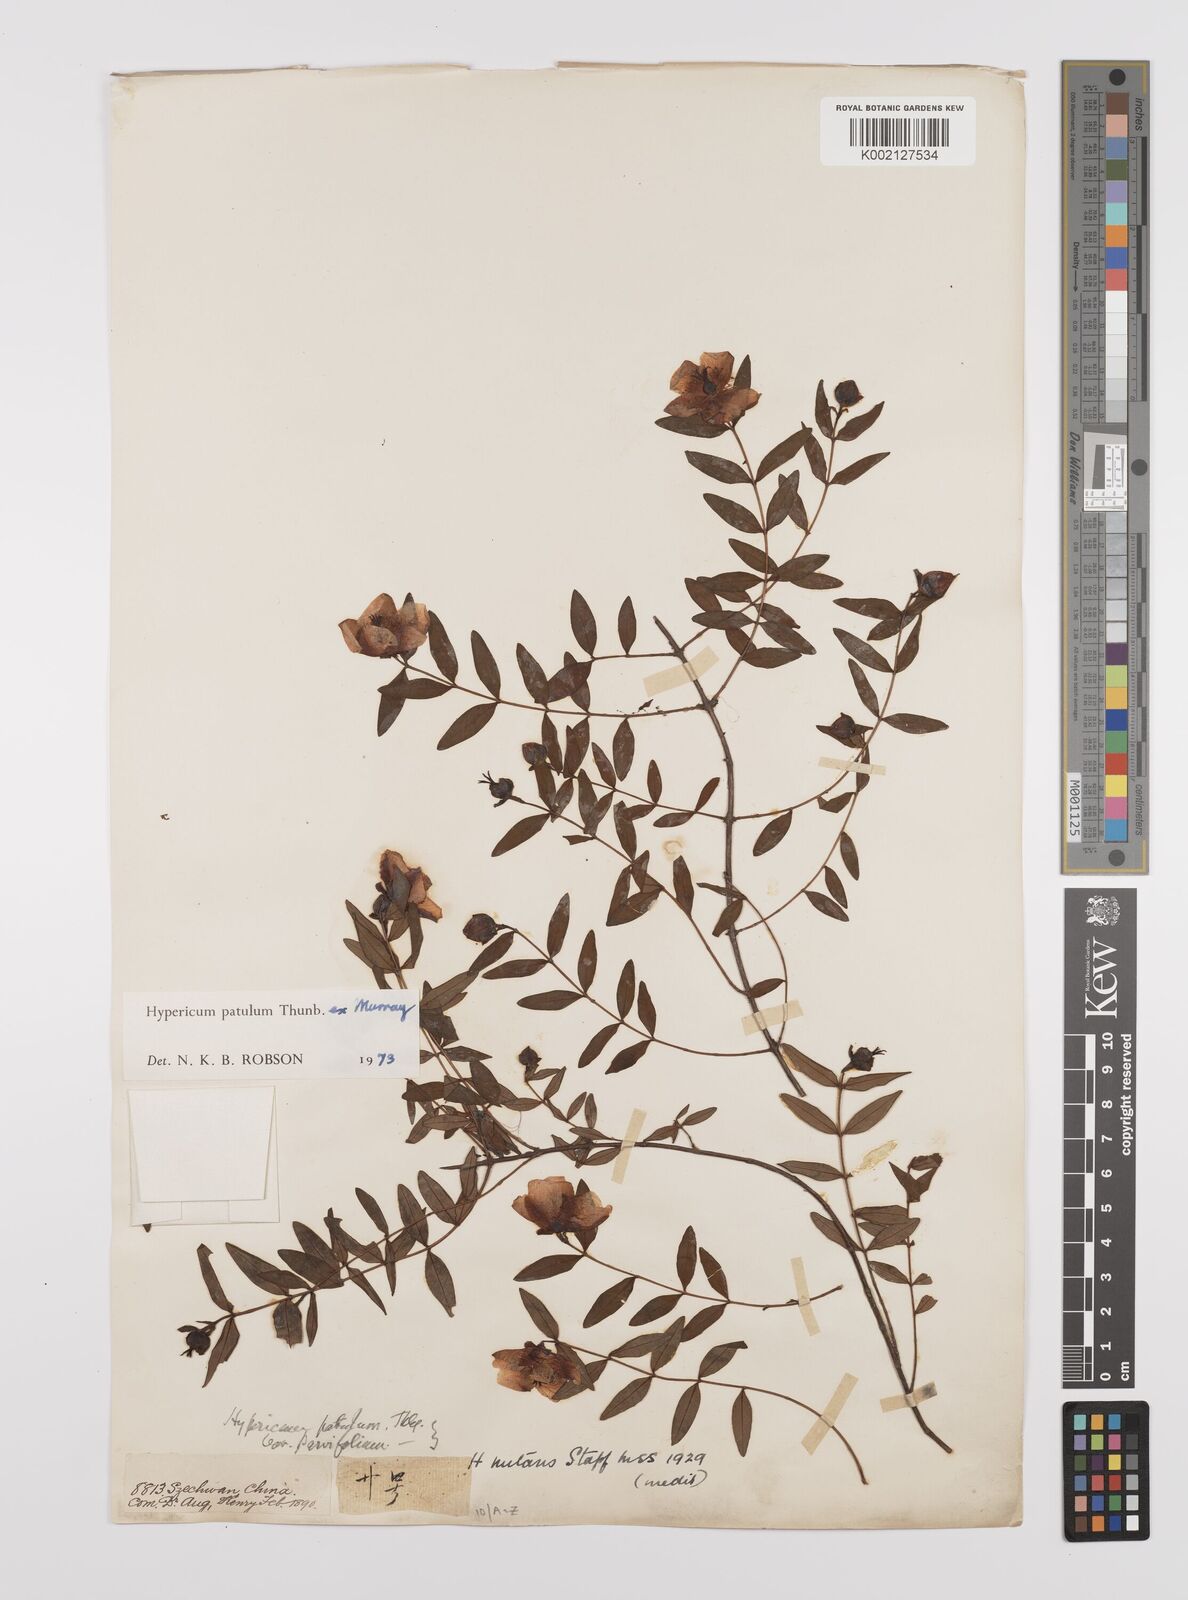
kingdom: Plantae
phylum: Tracheophyta
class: Magnoliopsida
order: Malpighiales
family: Hypericaceae
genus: Hypericum
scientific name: Hypericum patulum
